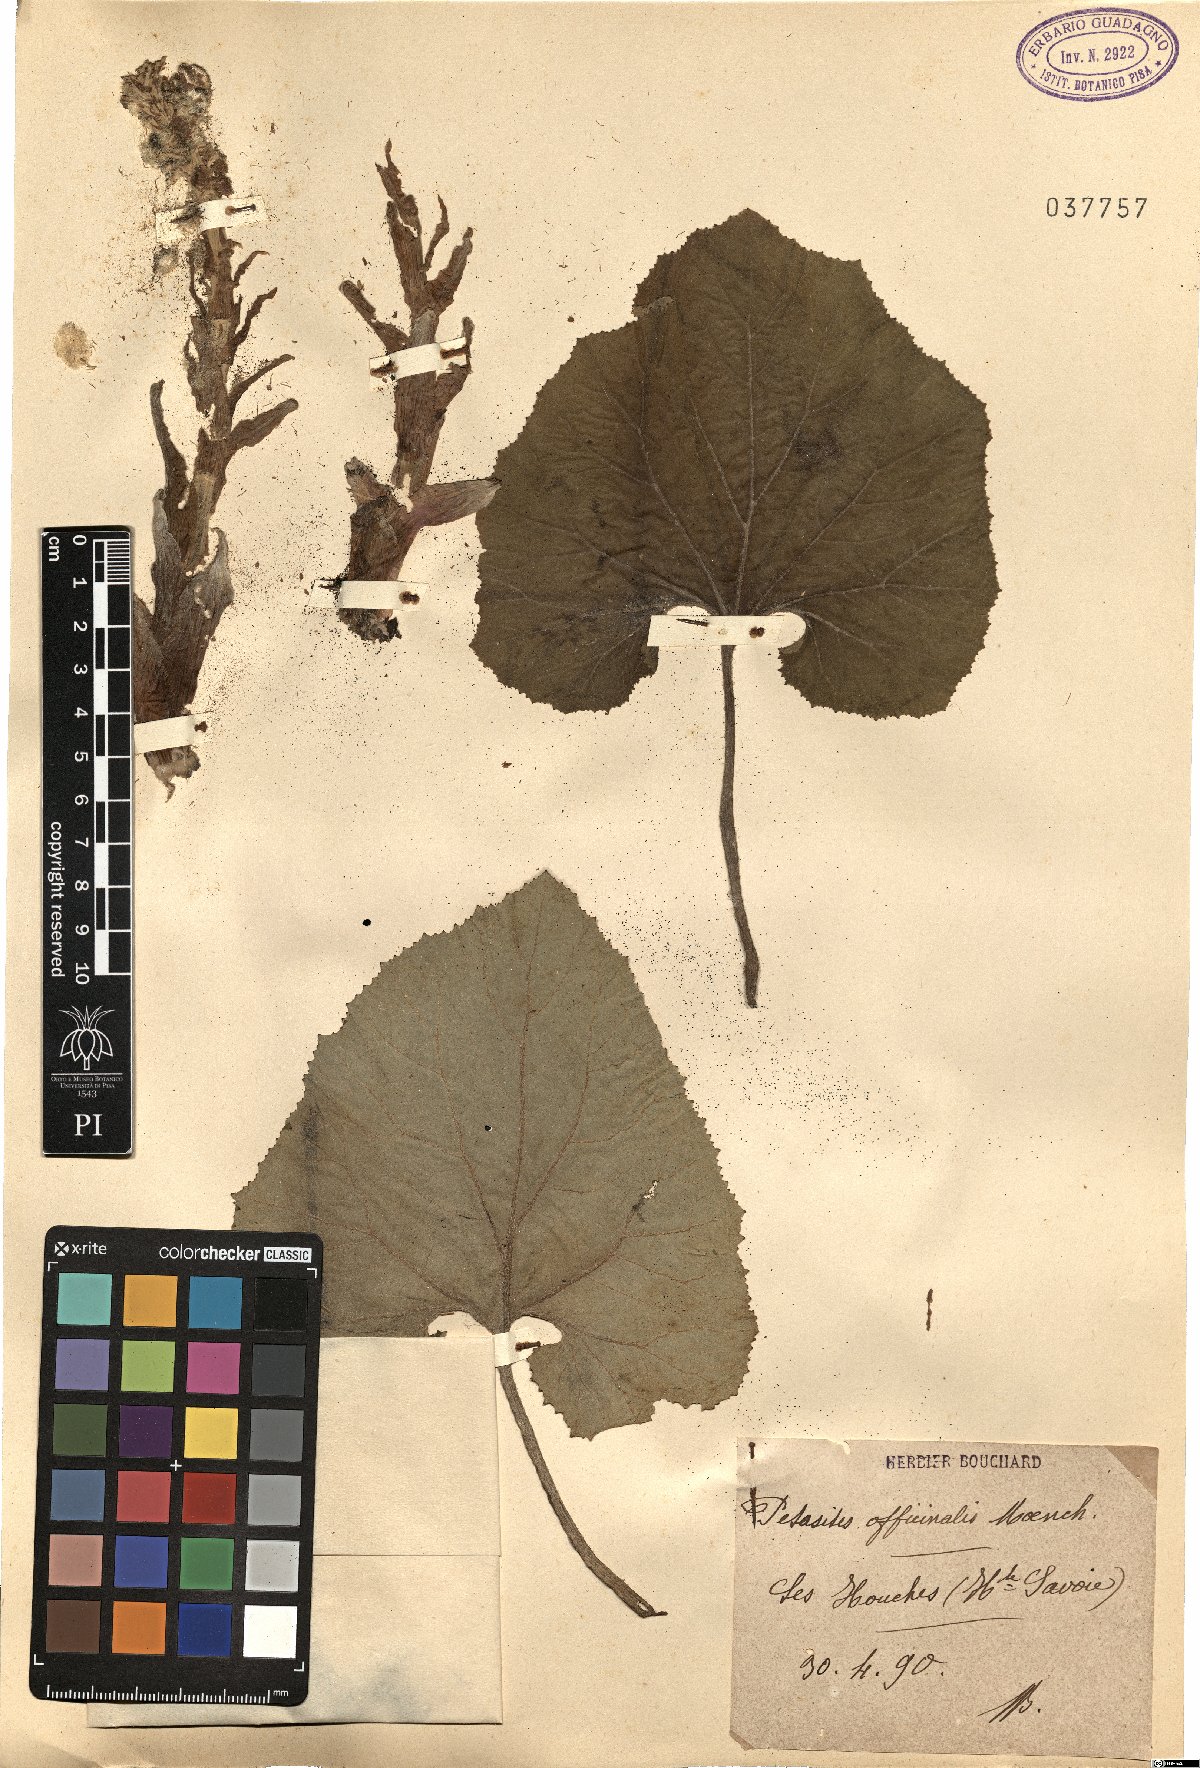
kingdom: Plantae
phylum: Tracheophyta
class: Magnoliopsida
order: Asterales
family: Asteraceae
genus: Petasites
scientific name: Petasites hybridus
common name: Butterbur
